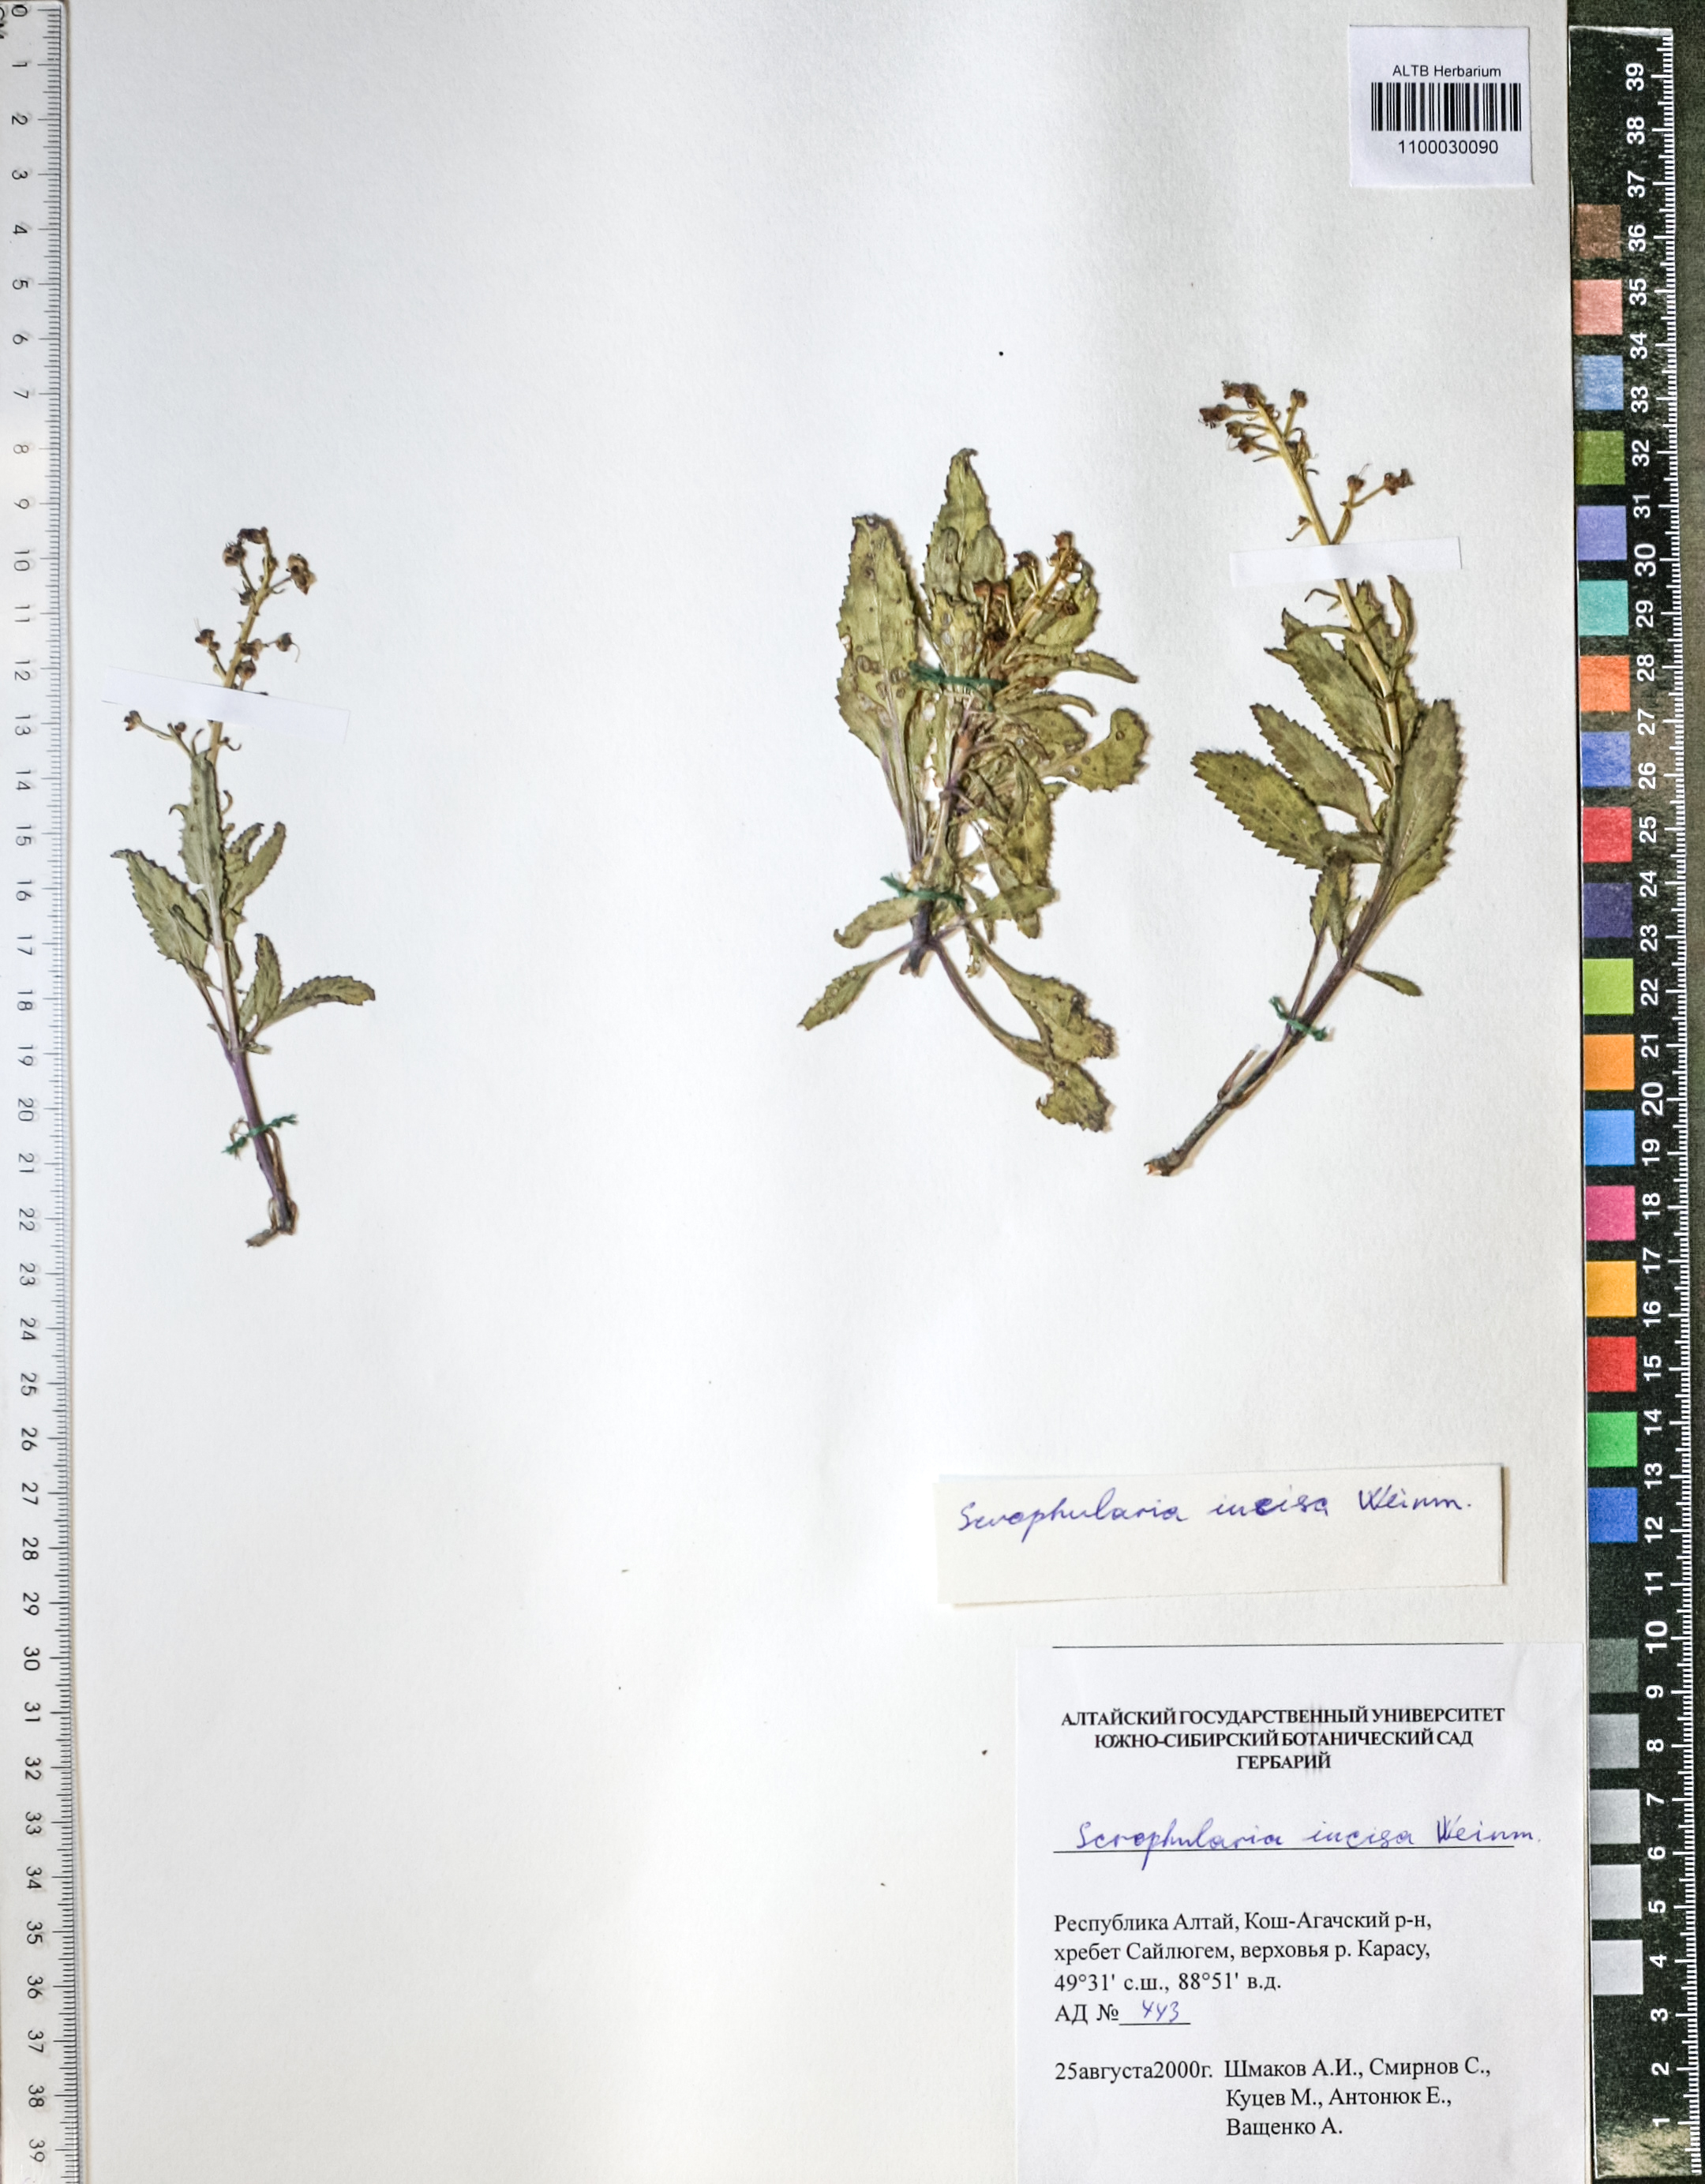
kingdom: Plantae
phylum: Tracheophyta
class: Magnoliopsida
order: Lamiales
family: Scrophulariaceae
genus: Scrophularia
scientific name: Scrophularia incisa
